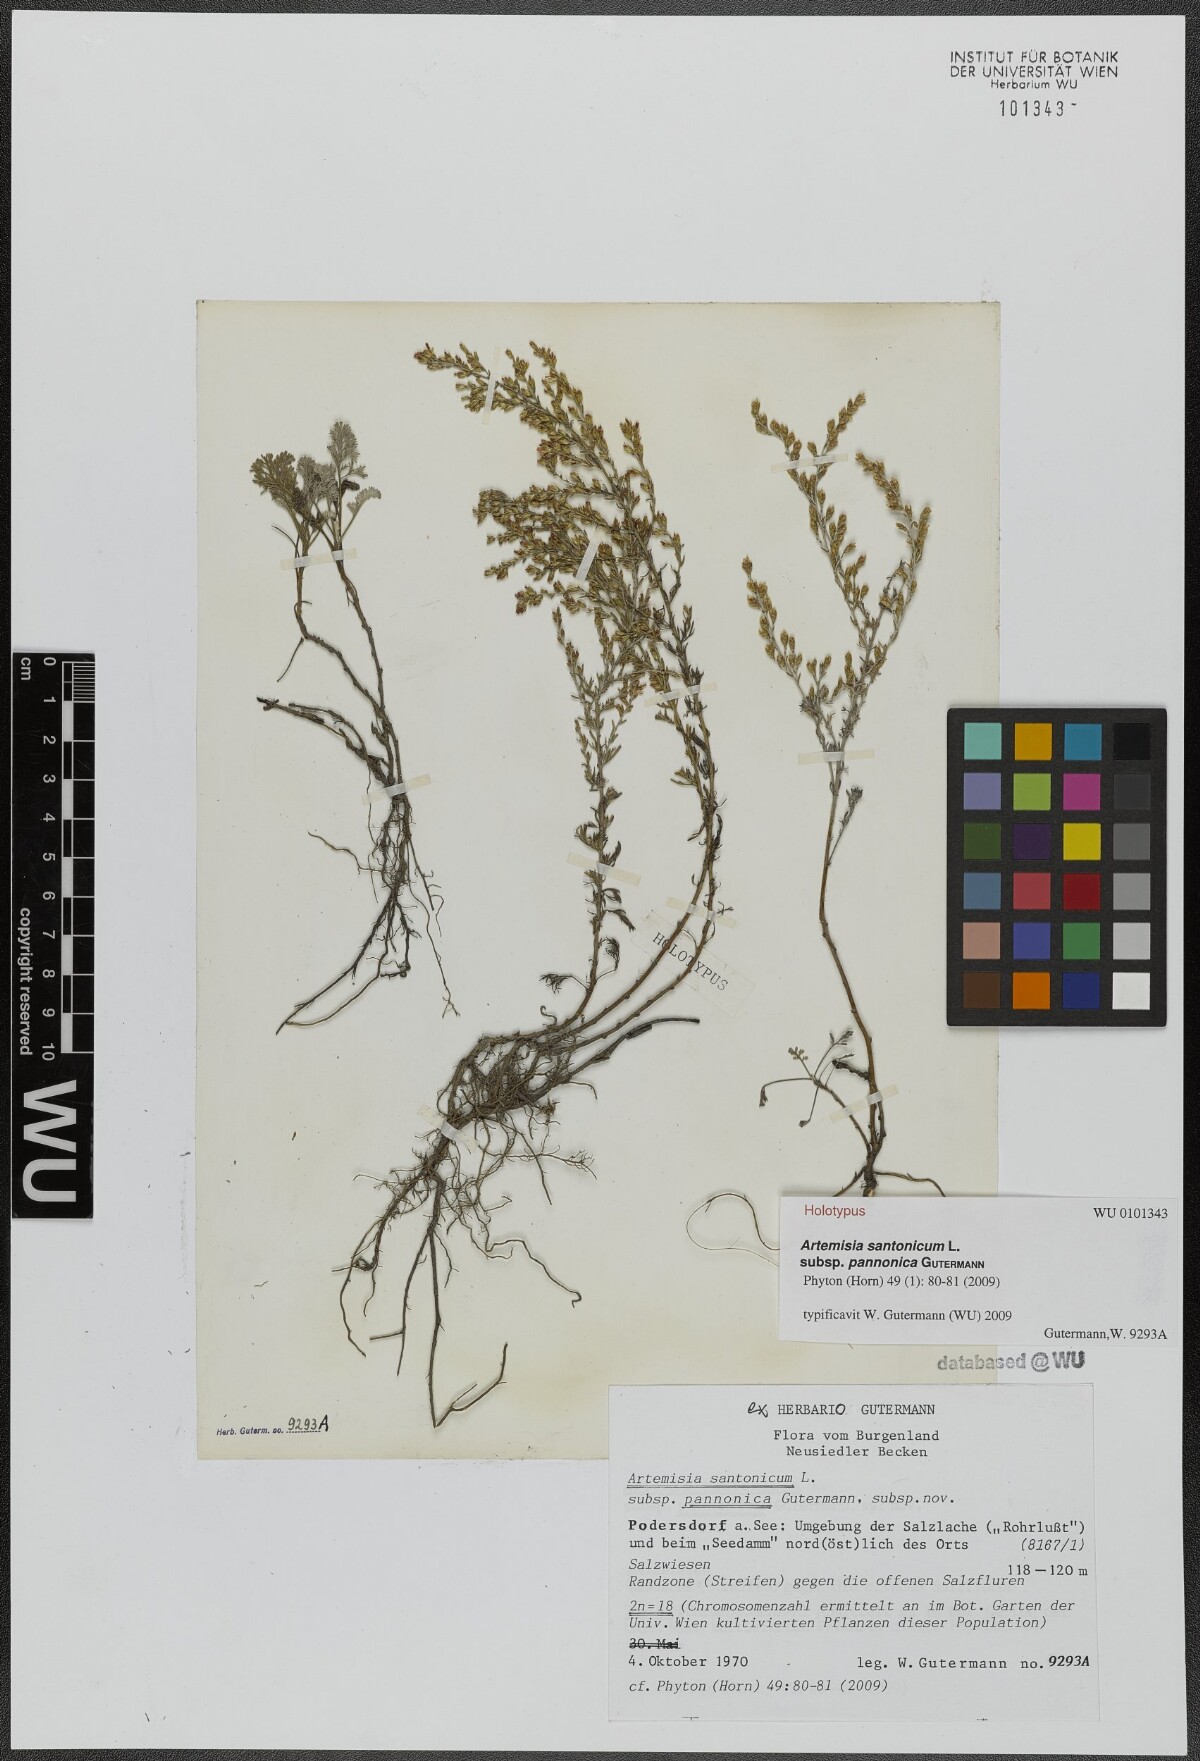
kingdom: Plantae
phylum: Tracheophyta
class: Magnoliopsida
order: Asterales
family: Asteraceae
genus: Artemisia
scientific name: Artemisia santonicum
